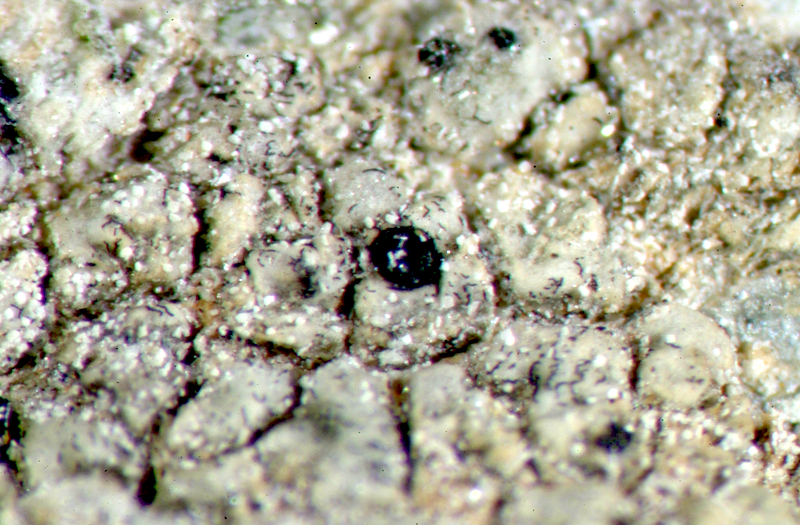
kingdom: Fungi
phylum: Ascomycota
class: Lecanoromycetes
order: Lecanorales
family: Parmeliaceae
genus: Lichen
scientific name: Lichen
